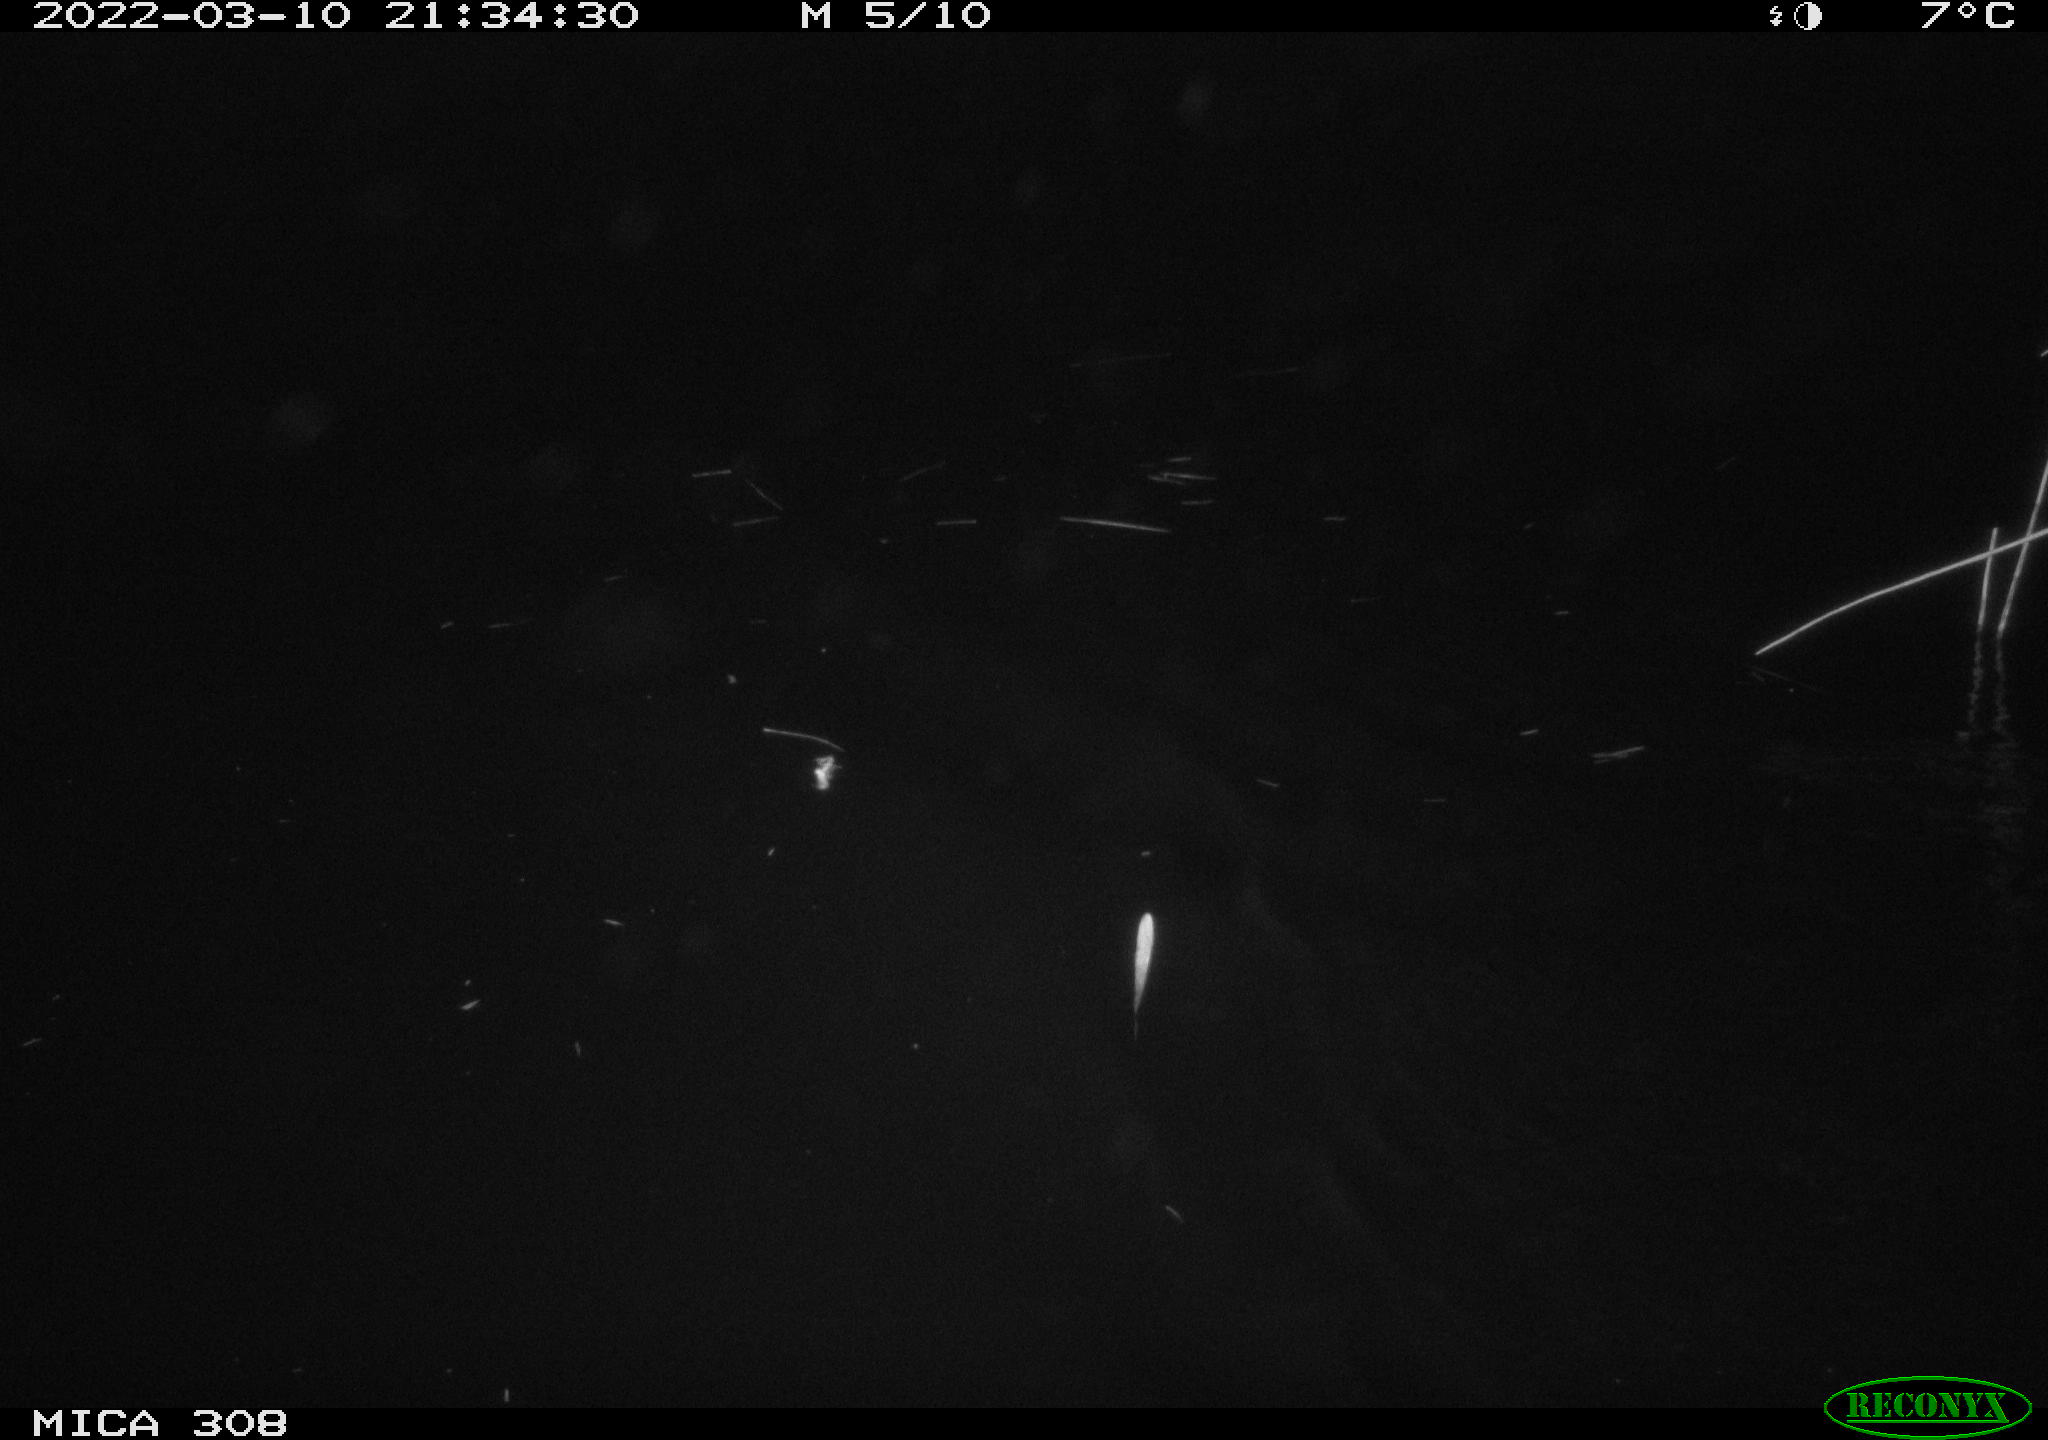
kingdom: Animalia
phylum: Chordata
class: Aves
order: Anseriformes
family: Anatidae
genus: Anas
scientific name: Anas platyrhynchos
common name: Mallard
